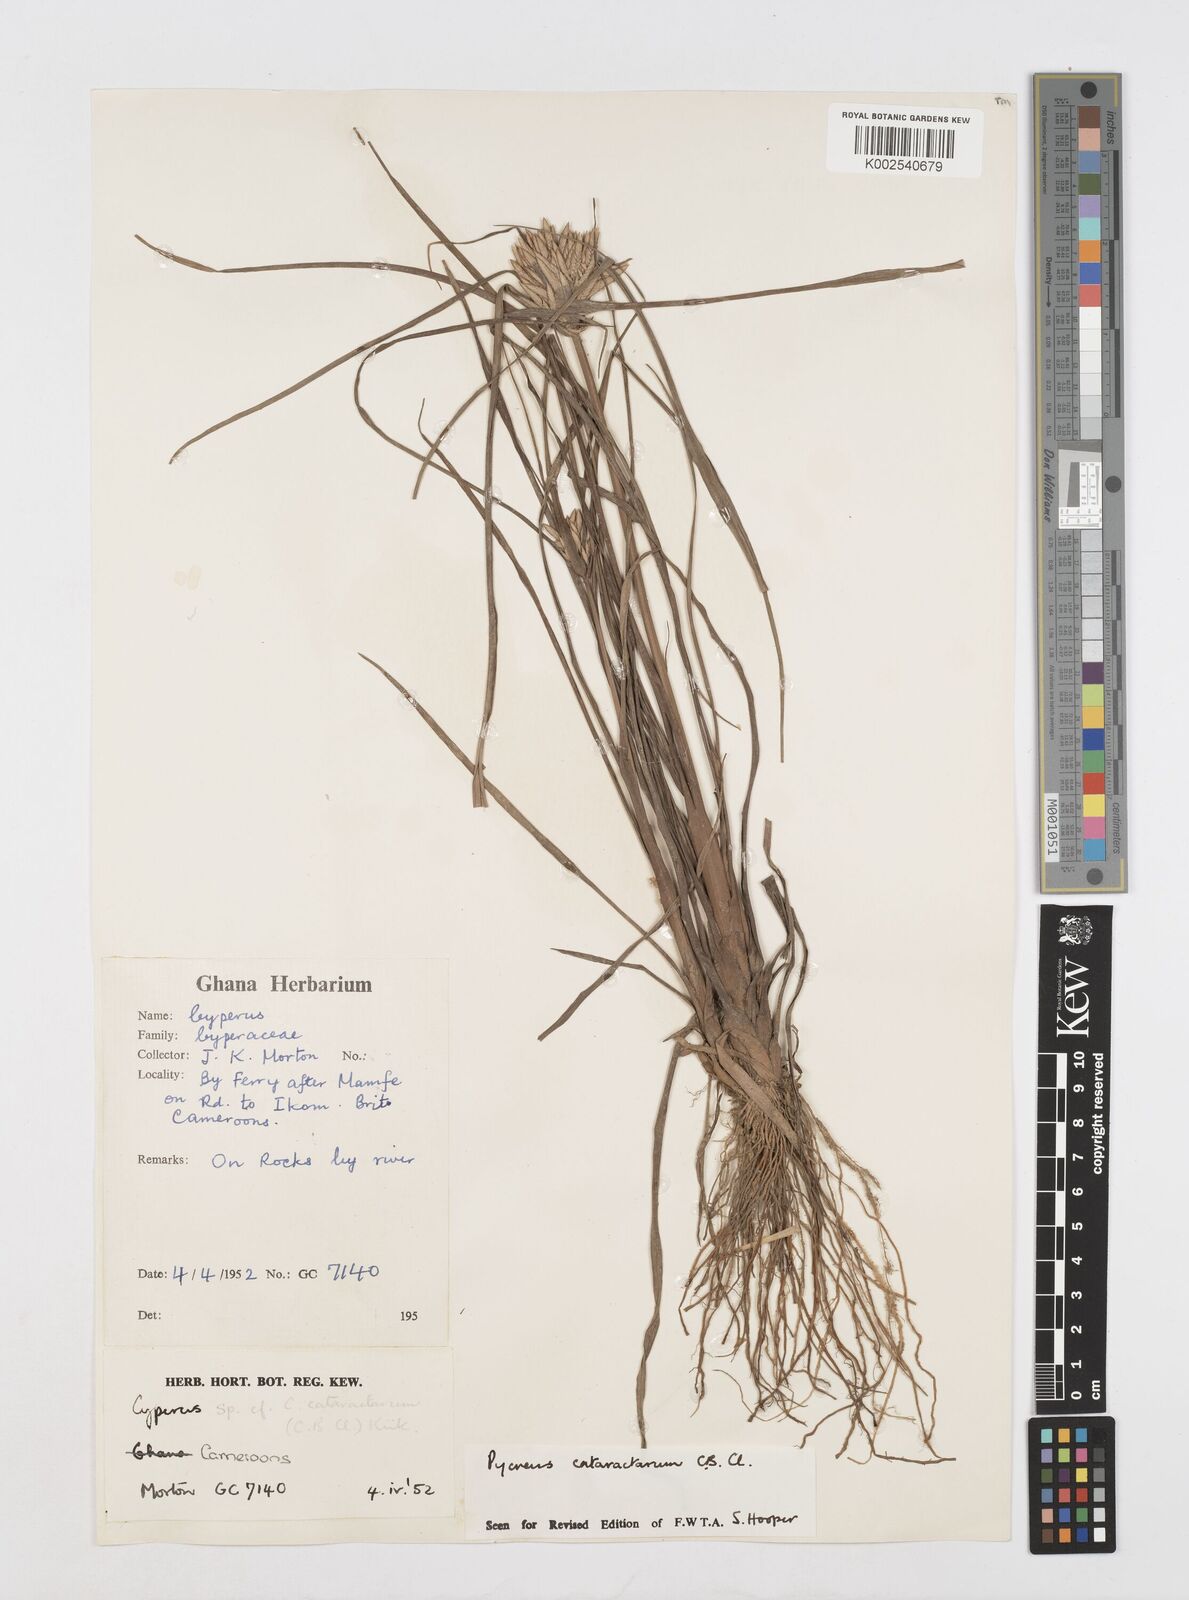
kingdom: Plantae
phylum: Tracheophyta
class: Liliopsida
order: Poales
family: Cyperaceae
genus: Cyperus
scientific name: Cyperus cataractarum
